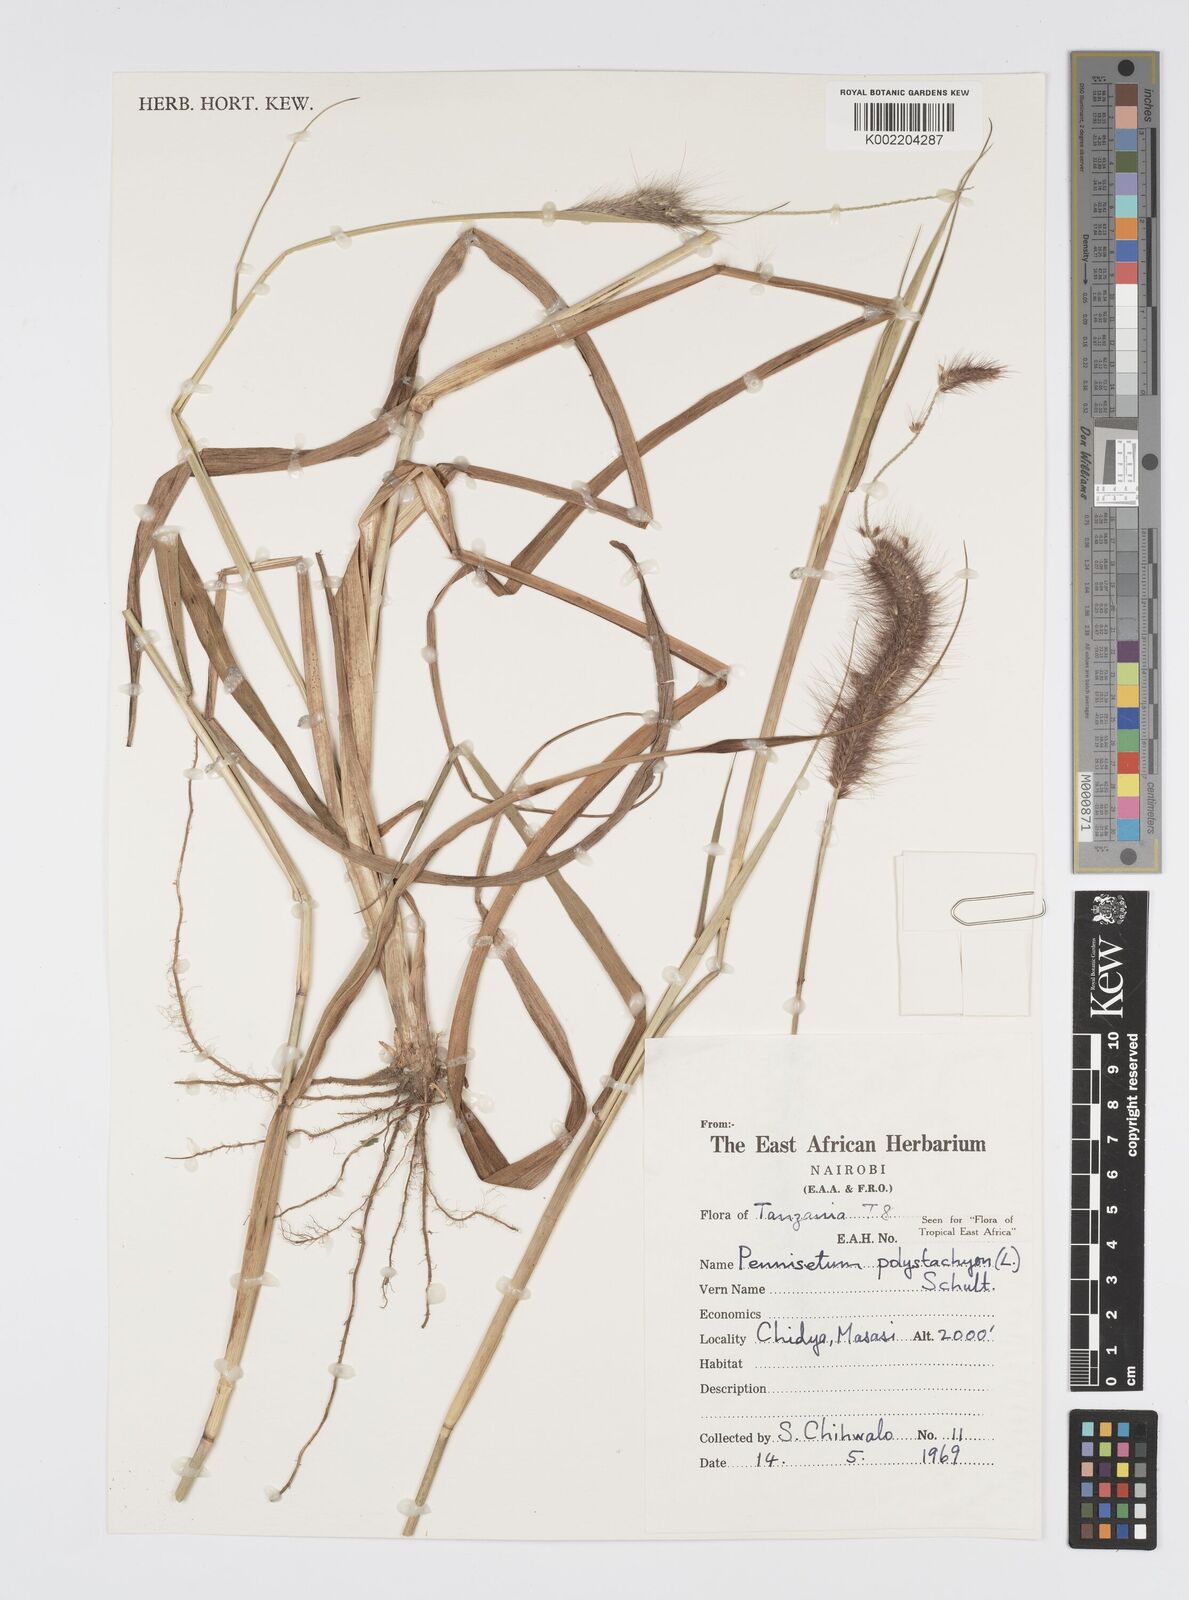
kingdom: Plantae
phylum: Tracheophyta
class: Liliopsida
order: Poales
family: Poaceae
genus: Setaria
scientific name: Setaria parviflora
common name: Knotroot bristle-grass
